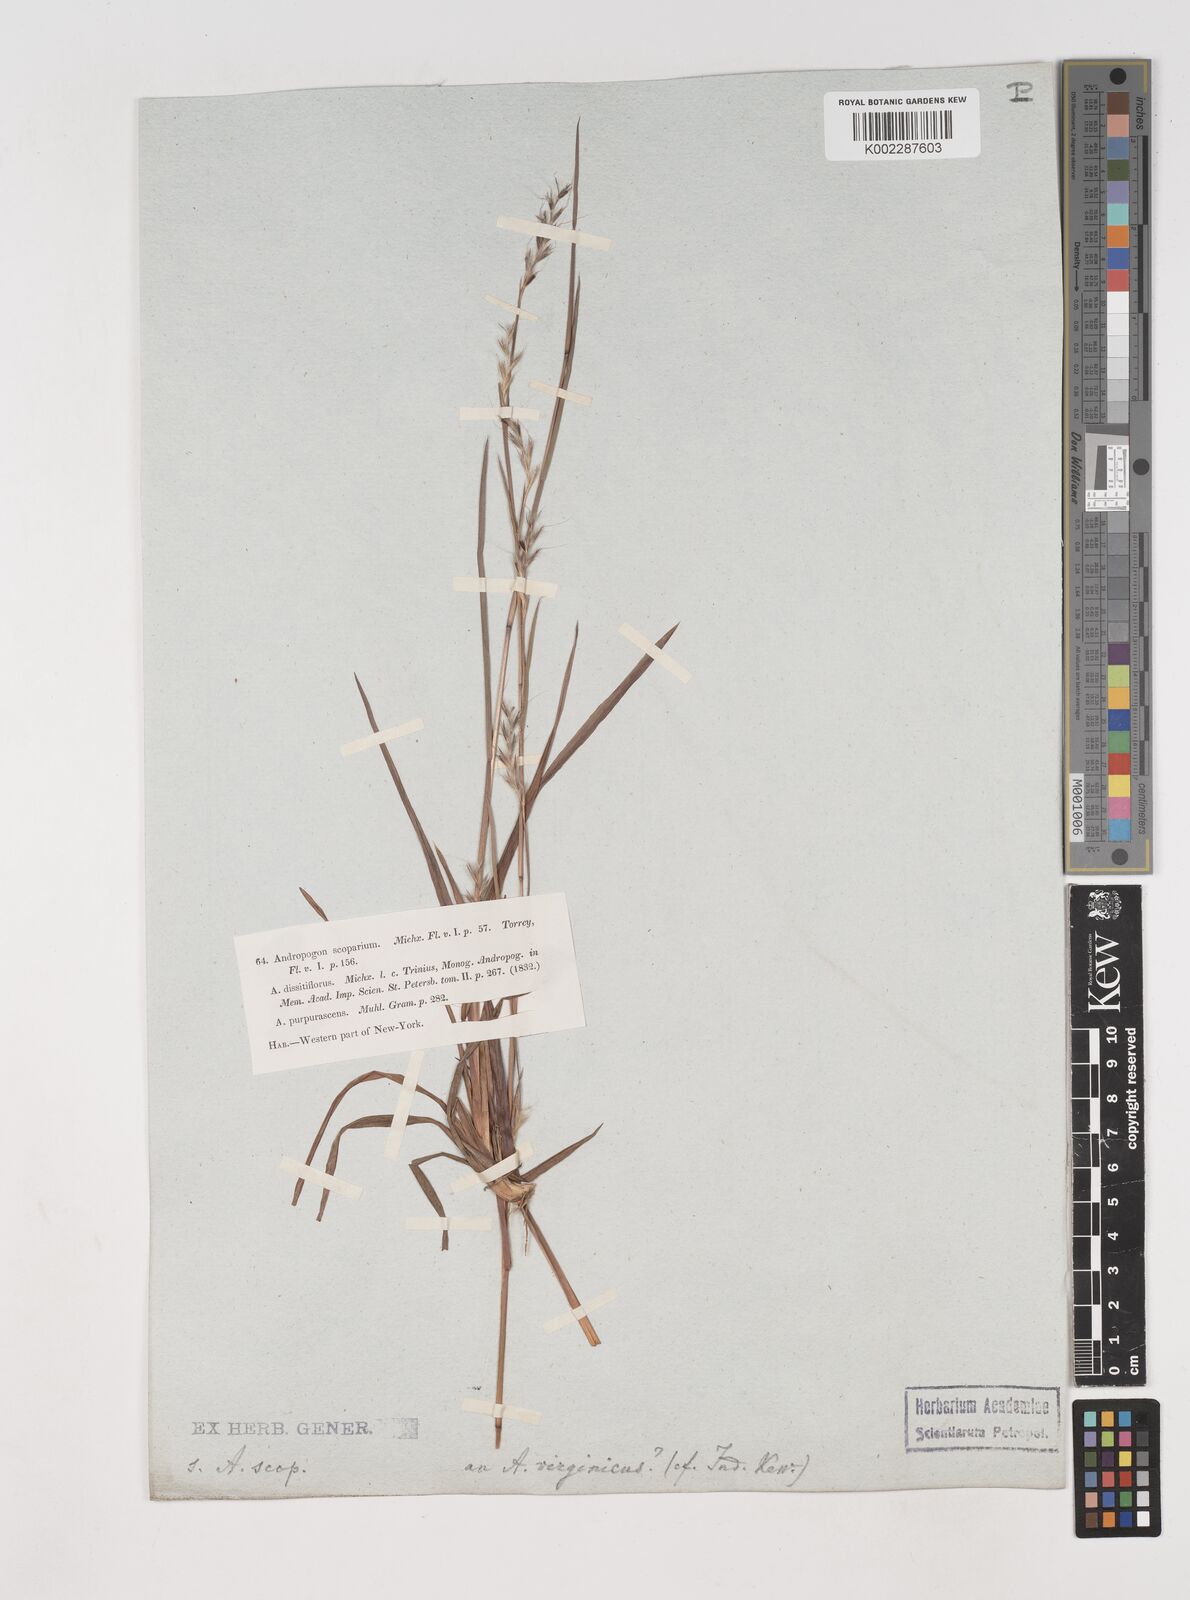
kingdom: Plantae
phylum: Tracheophyta
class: Liliopsida
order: Poales
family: Poaceae
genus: Schizachyrium
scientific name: Schizachyrium scoparium
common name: Little bluestem
